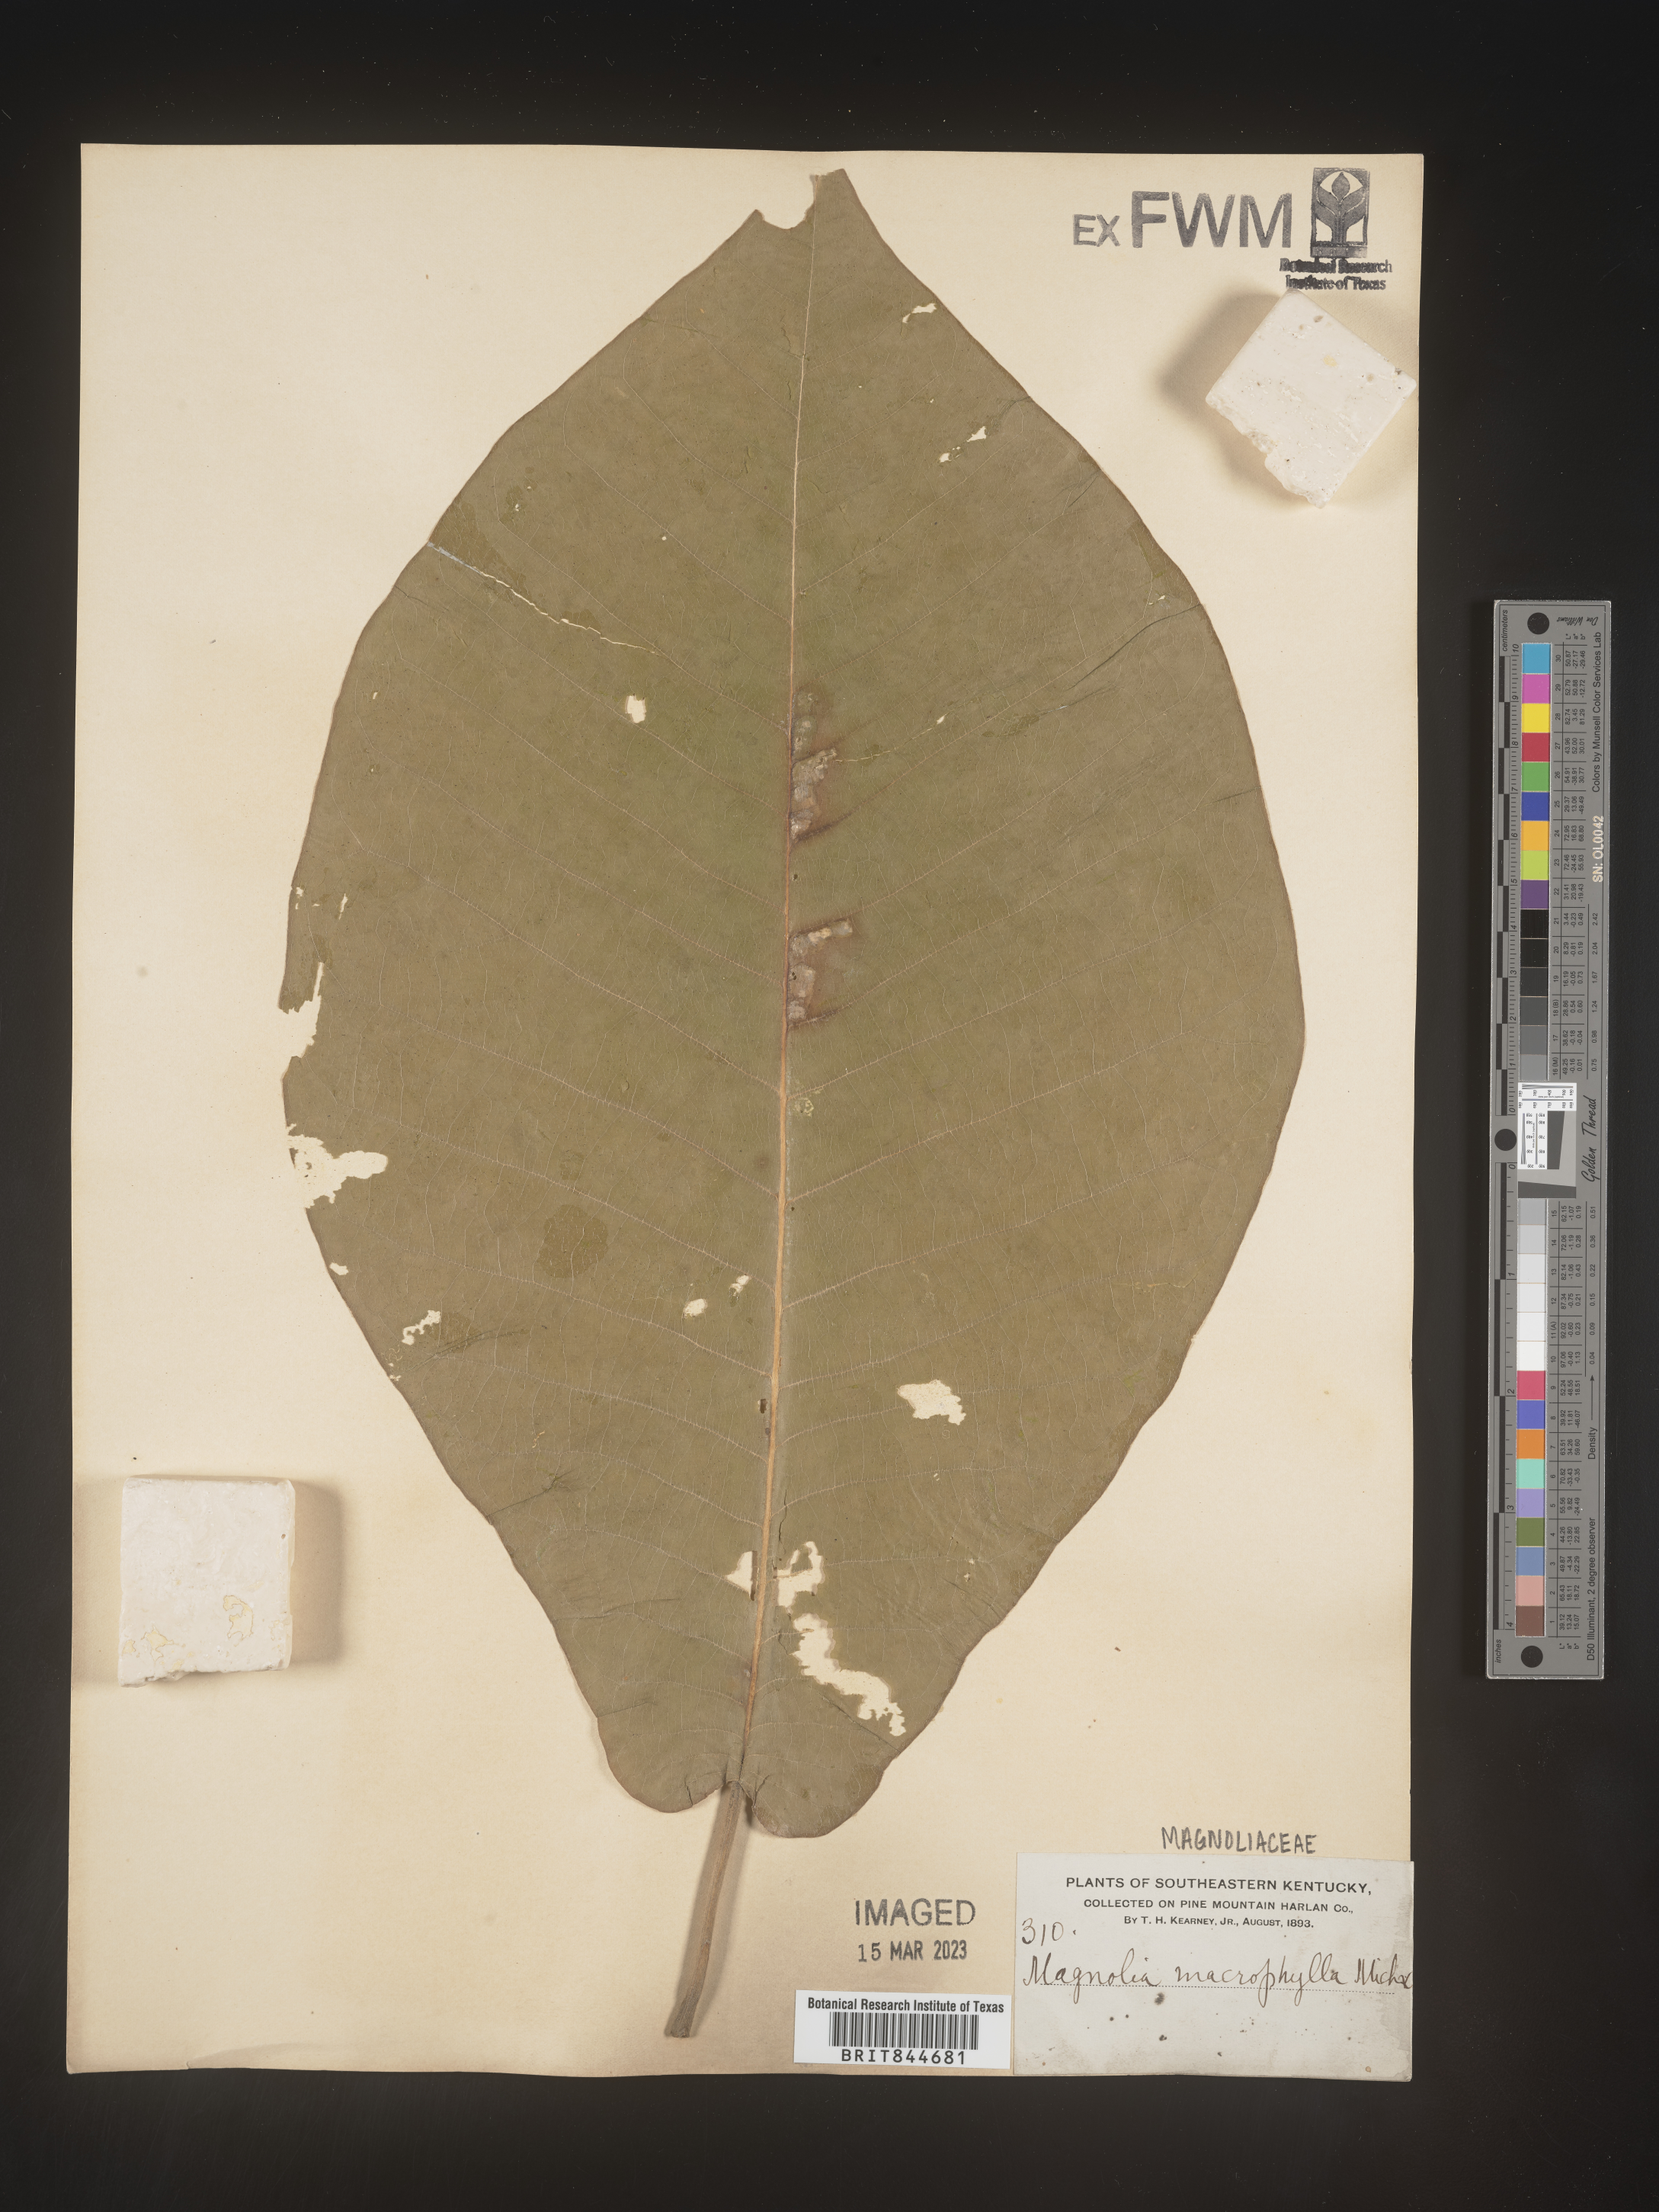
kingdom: Plantae
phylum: Tracheophyta
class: Magnoliopsida
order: Magnoliales
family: Magnoliaceae
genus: Magnolia
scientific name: Magnolia macrophylla
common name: Big-leaf magnolia
